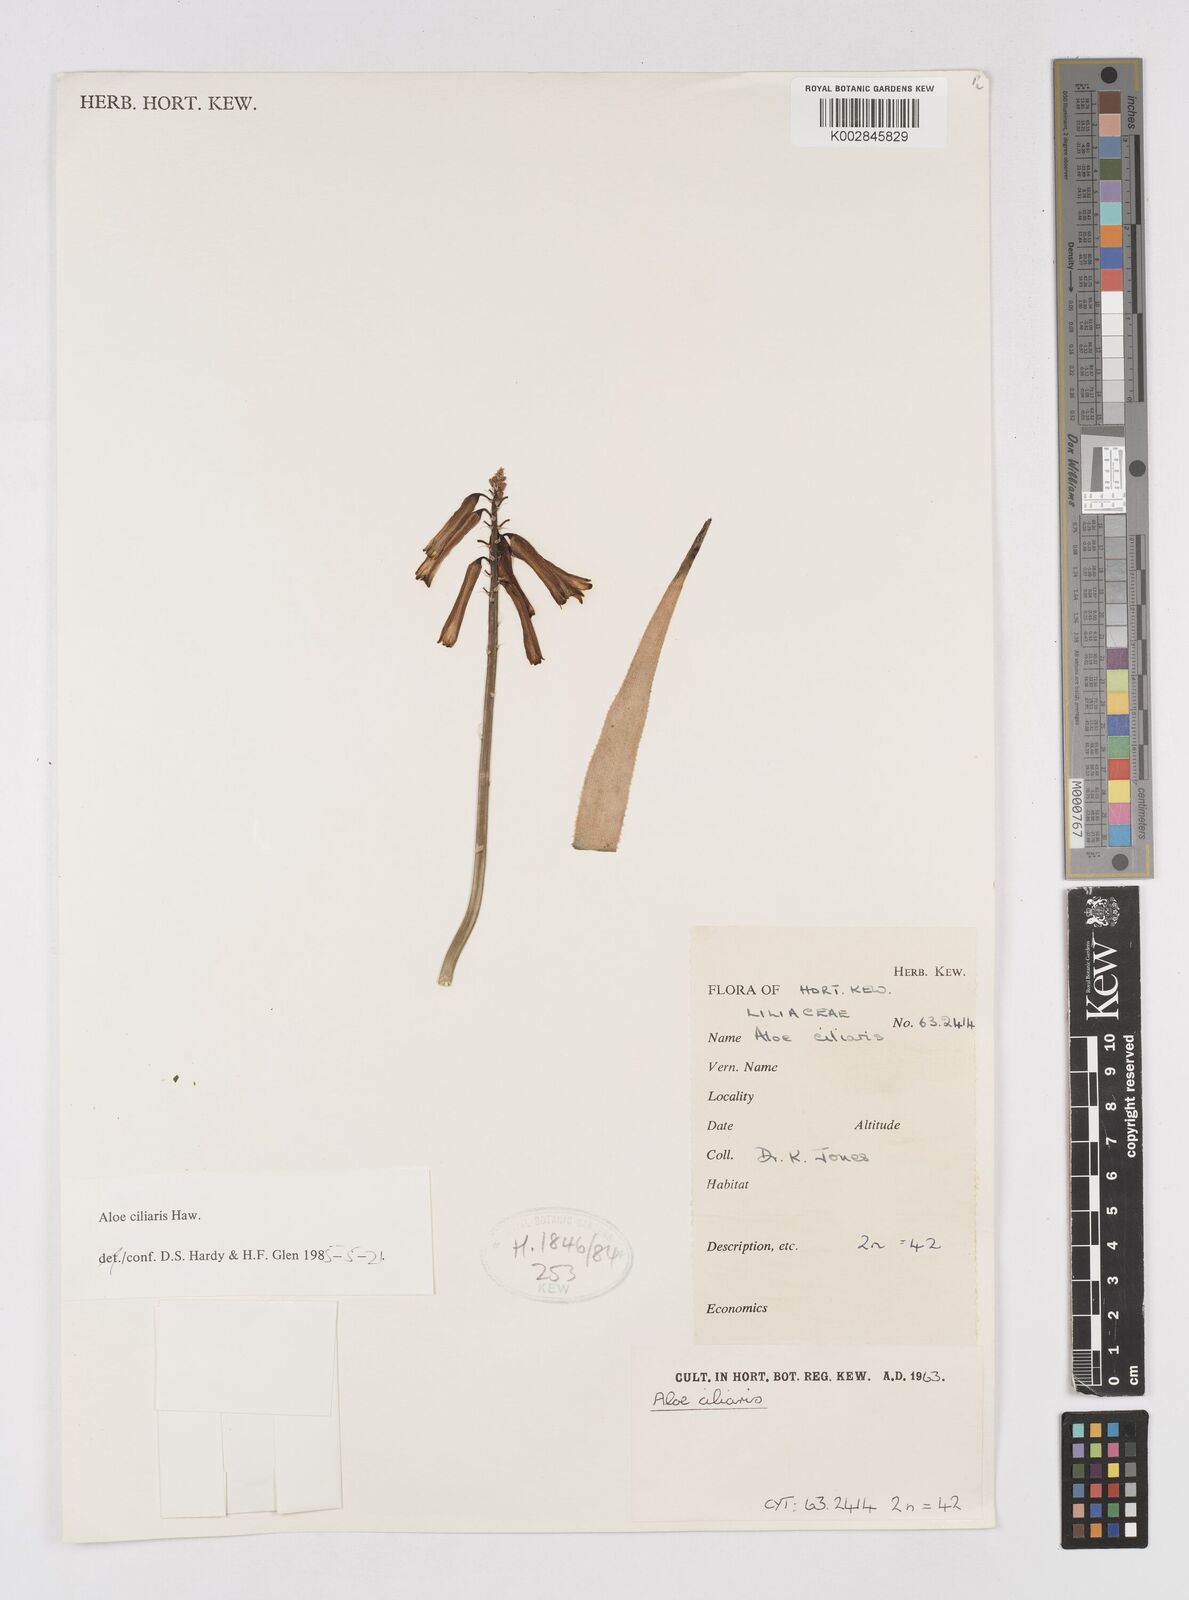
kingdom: Plantae
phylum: Tracheophyta
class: Liliopsida
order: Asparagales
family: Asphodelaceae
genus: Aloiampelos
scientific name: Aloiampelos ciliaris
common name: Climbing aloe
